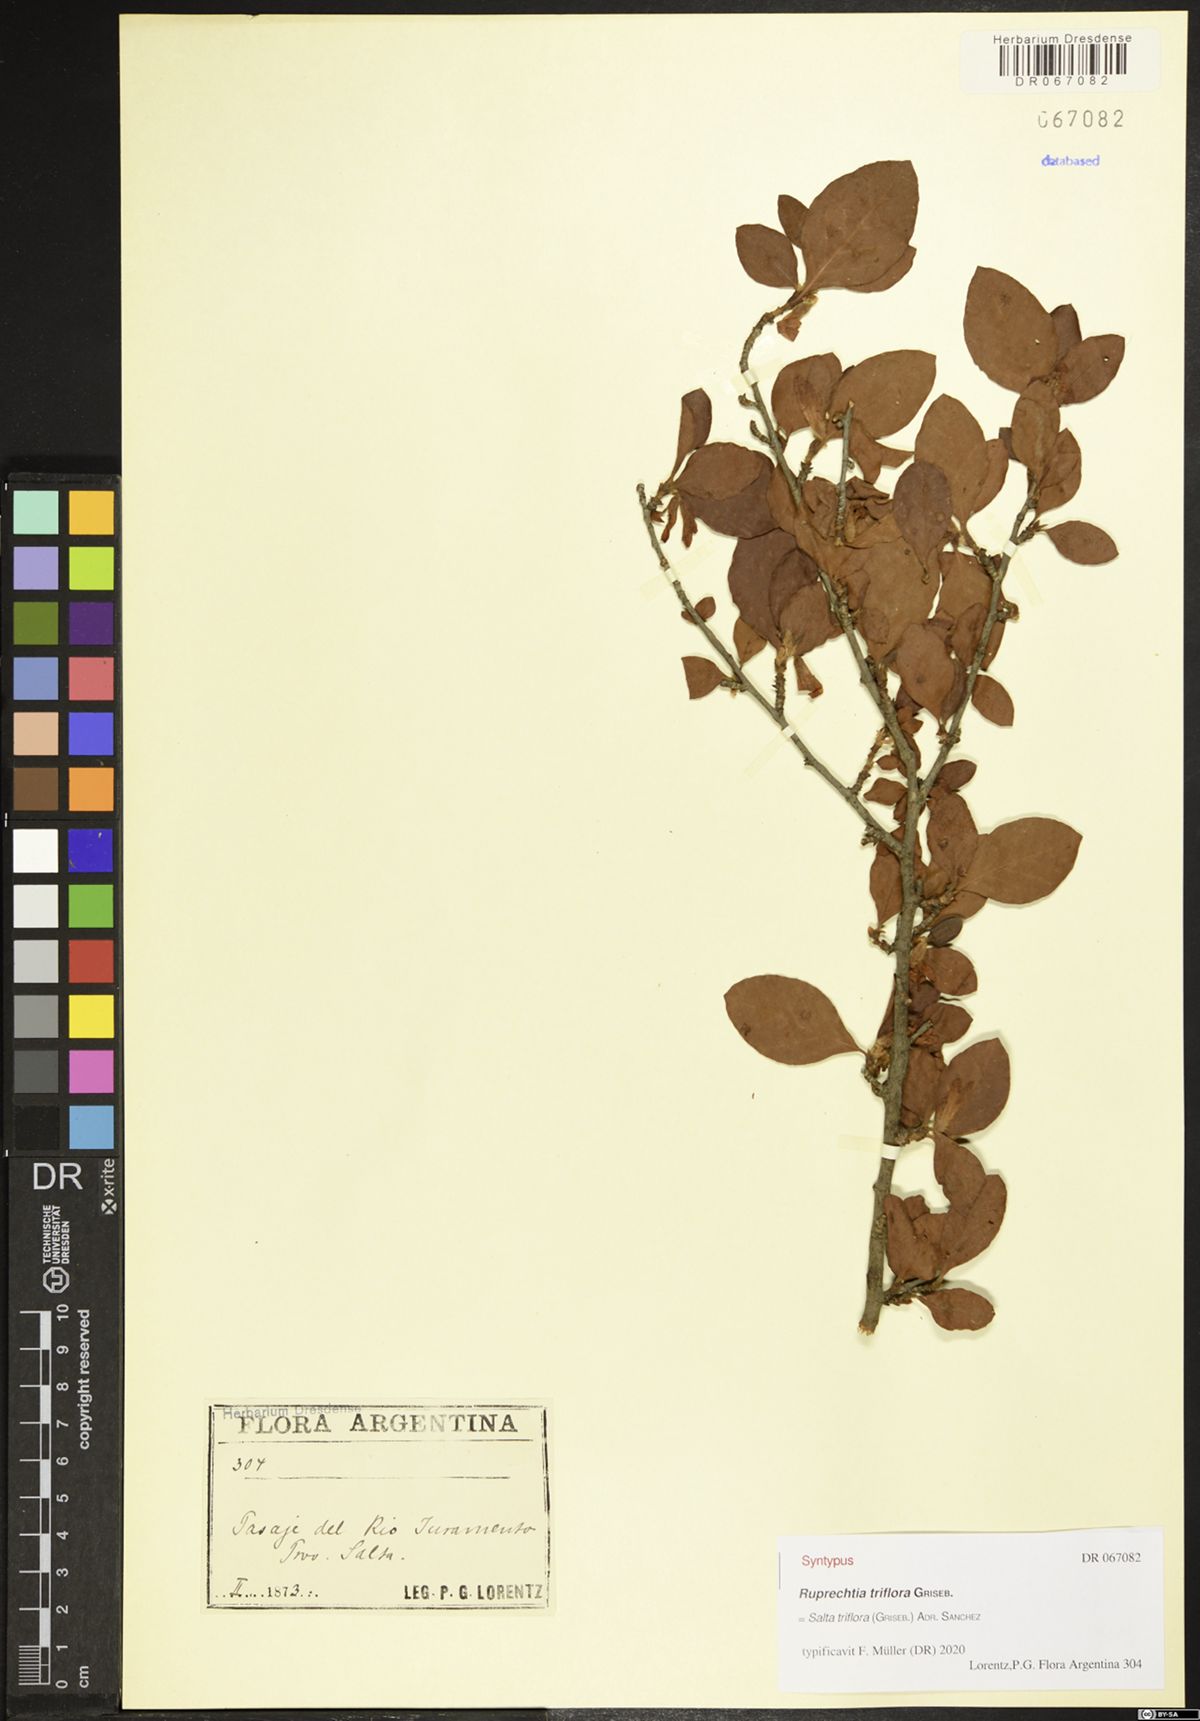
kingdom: Plantae
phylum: Tracheophyta
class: Magnoliopsida
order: Caryophyllales
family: Polygonaceae
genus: Salta
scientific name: Salta triflora
